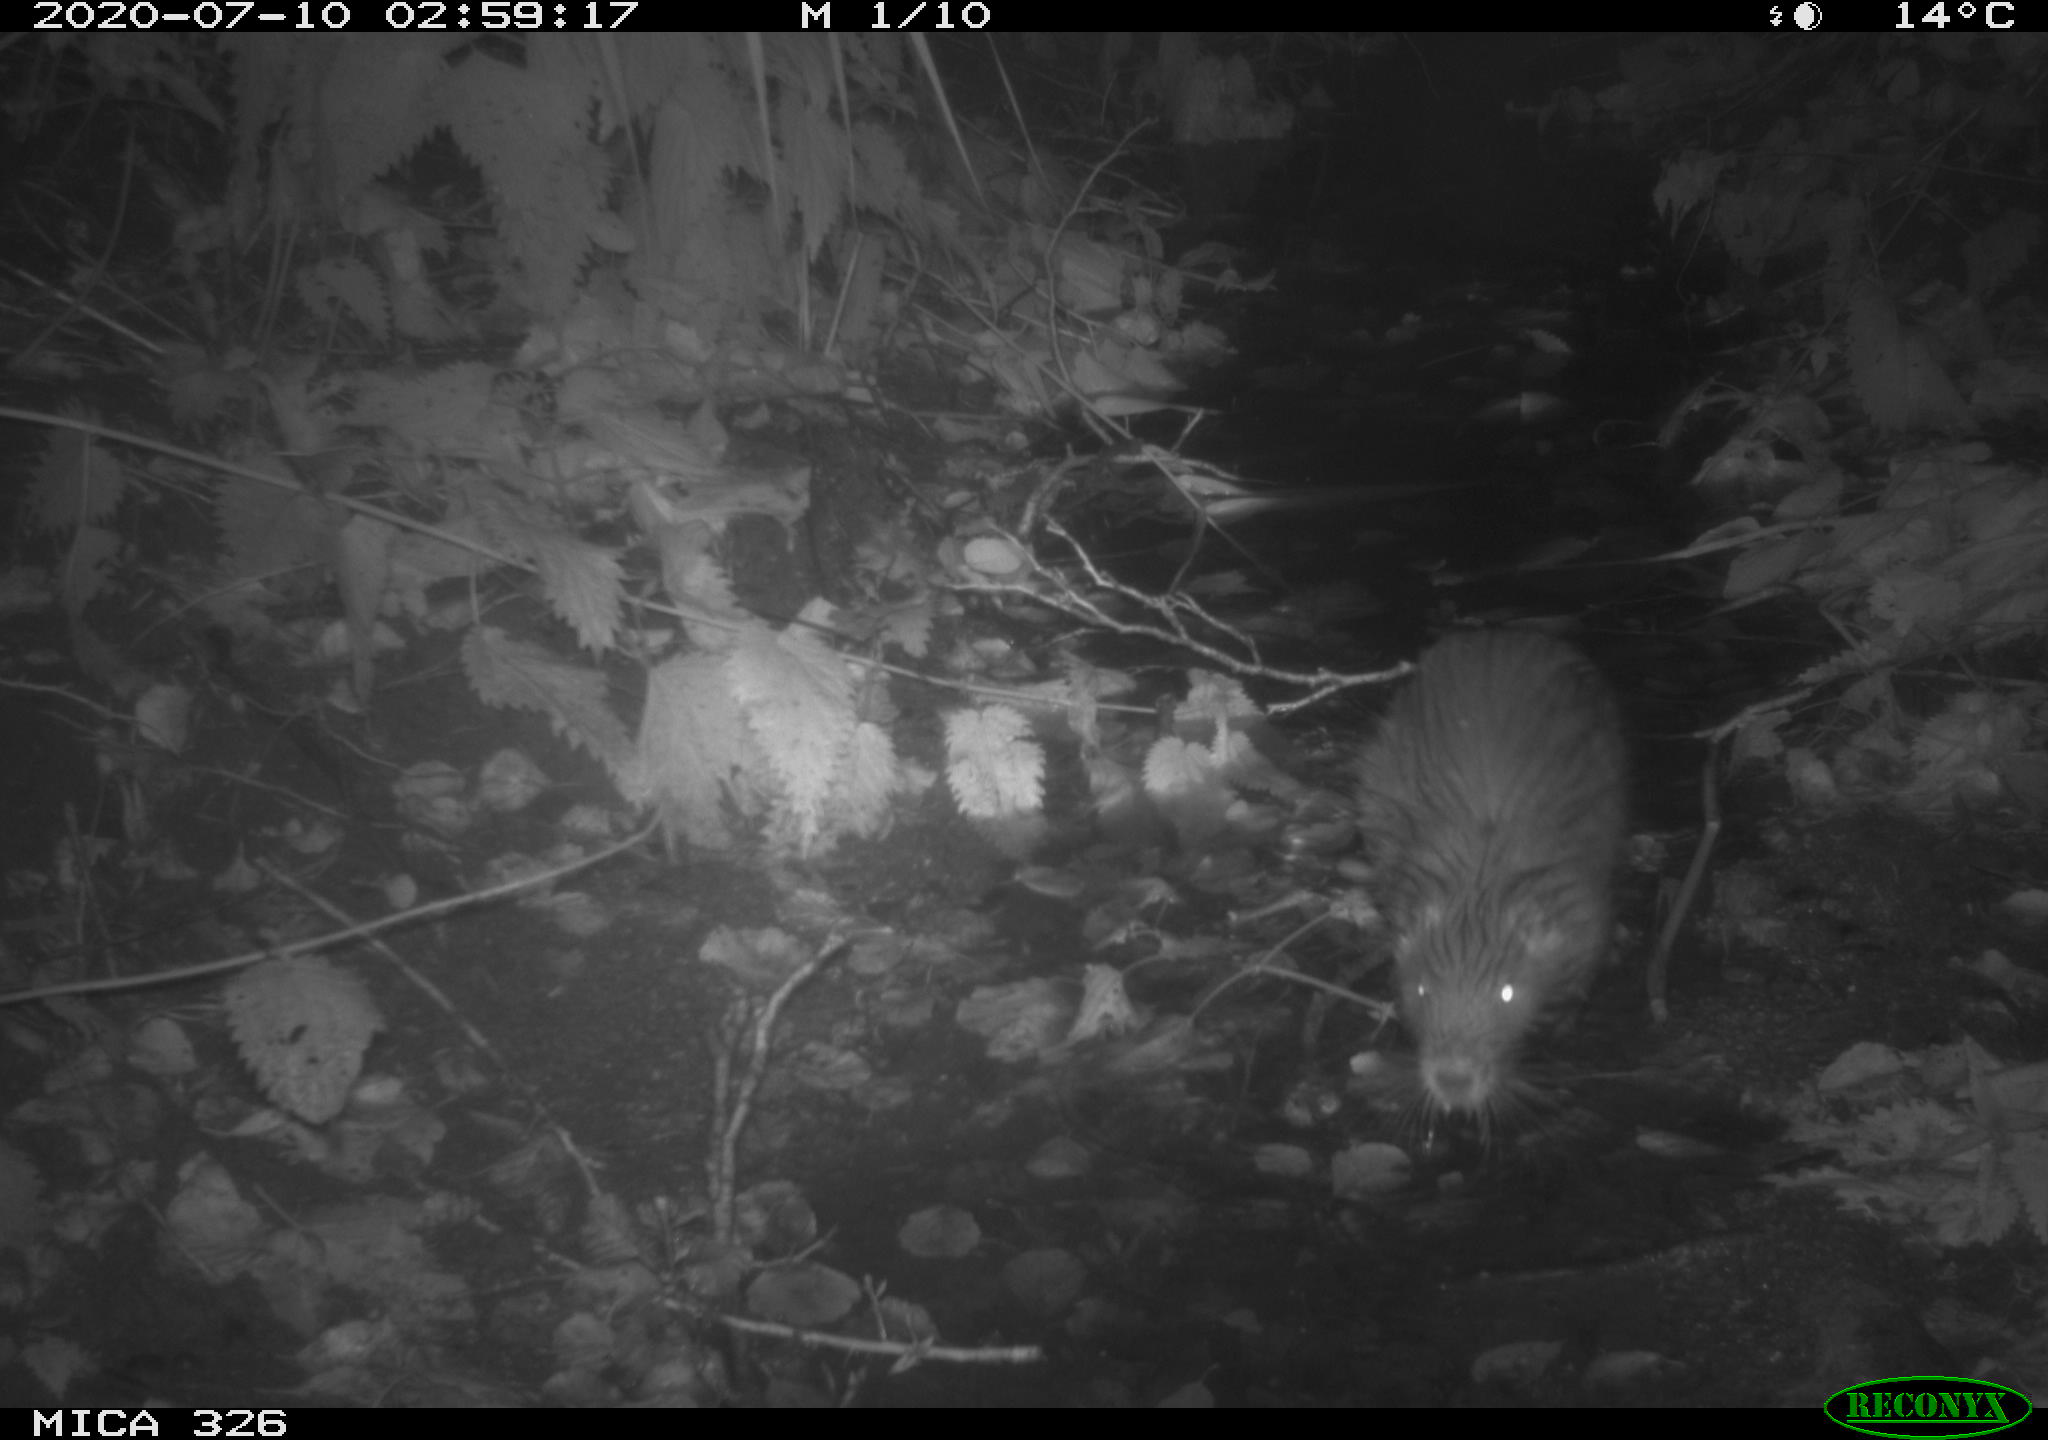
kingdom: Animalia
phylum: Chordata
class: Mammalia
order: Rodentia
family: Myocastoridae
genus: Myocastor
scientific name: Myocastor coypus
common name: Coypu
